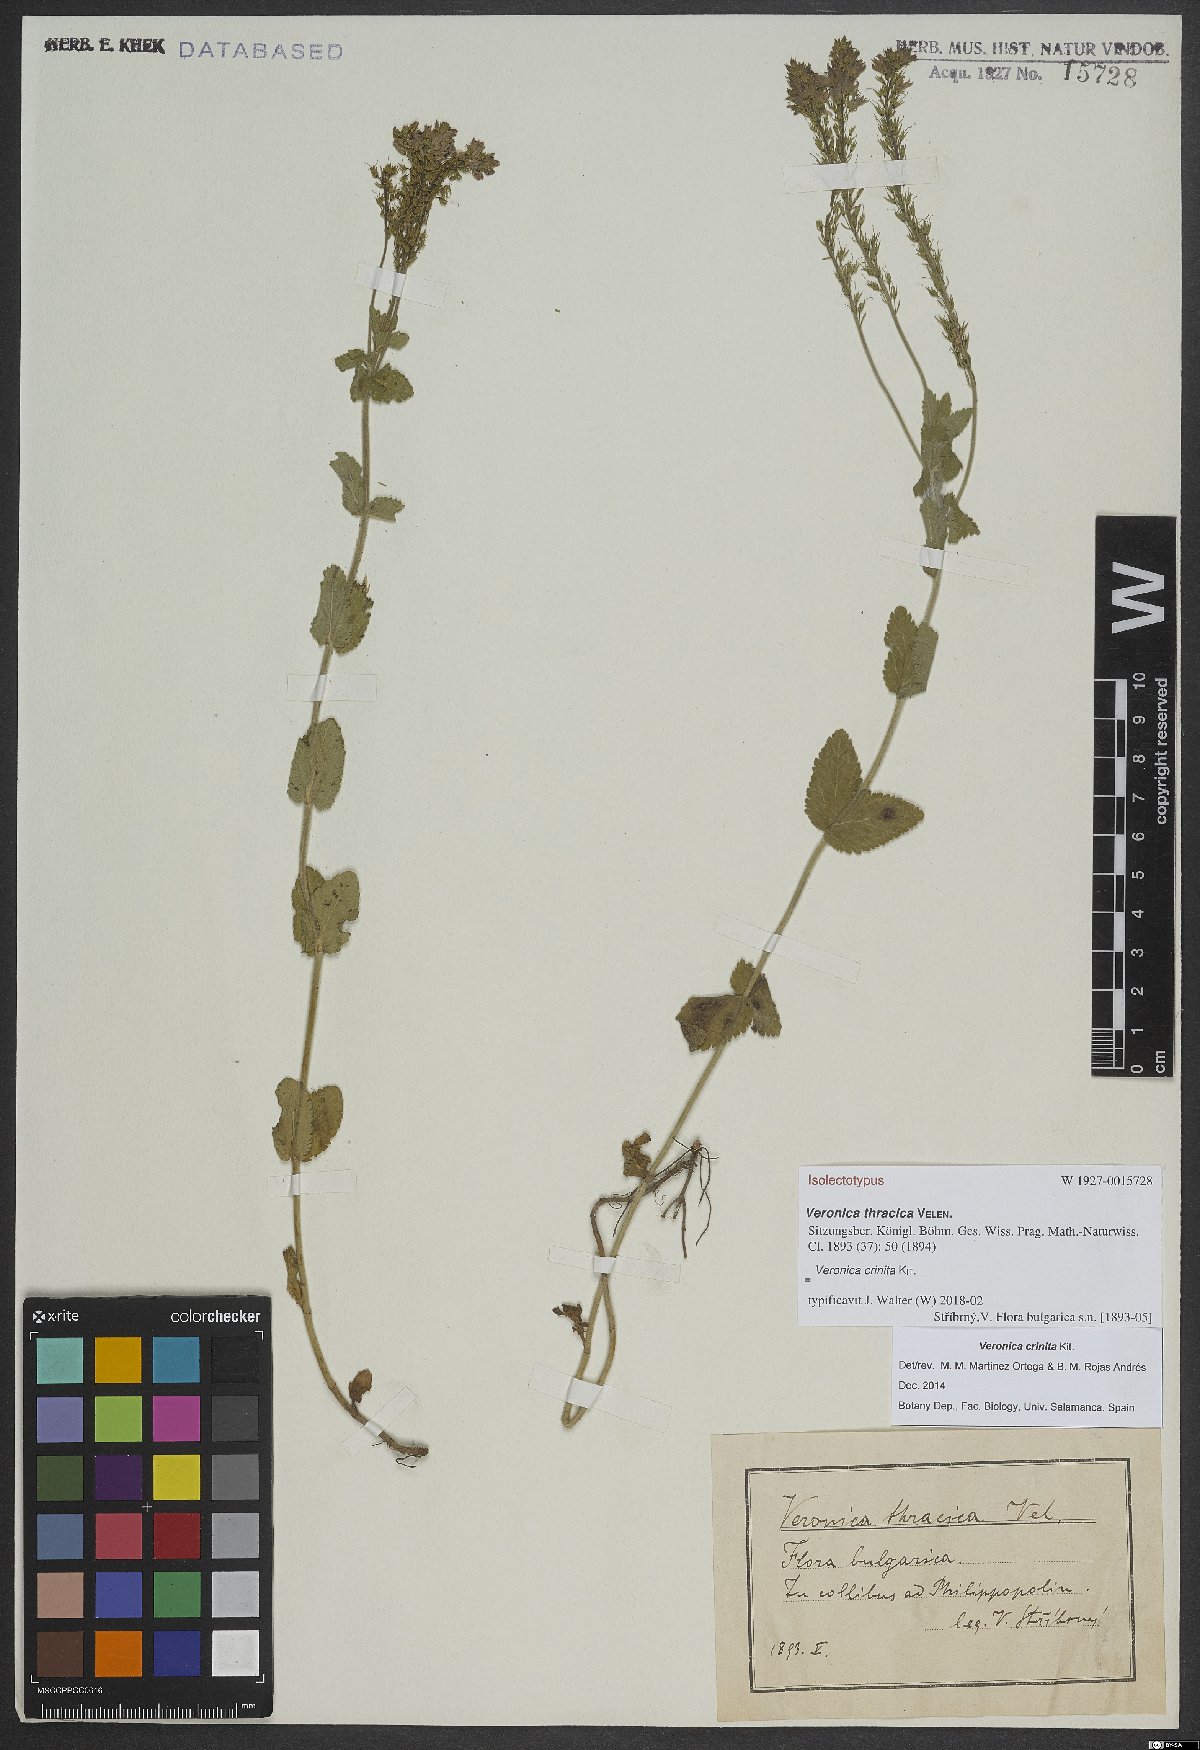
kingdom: Plantae
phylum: Tracheophyta
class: Magnoliopsida
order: Lamiales
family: Plantaginaceae
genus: Veronica
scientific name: Veronica teucrium
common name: Large speedwell
